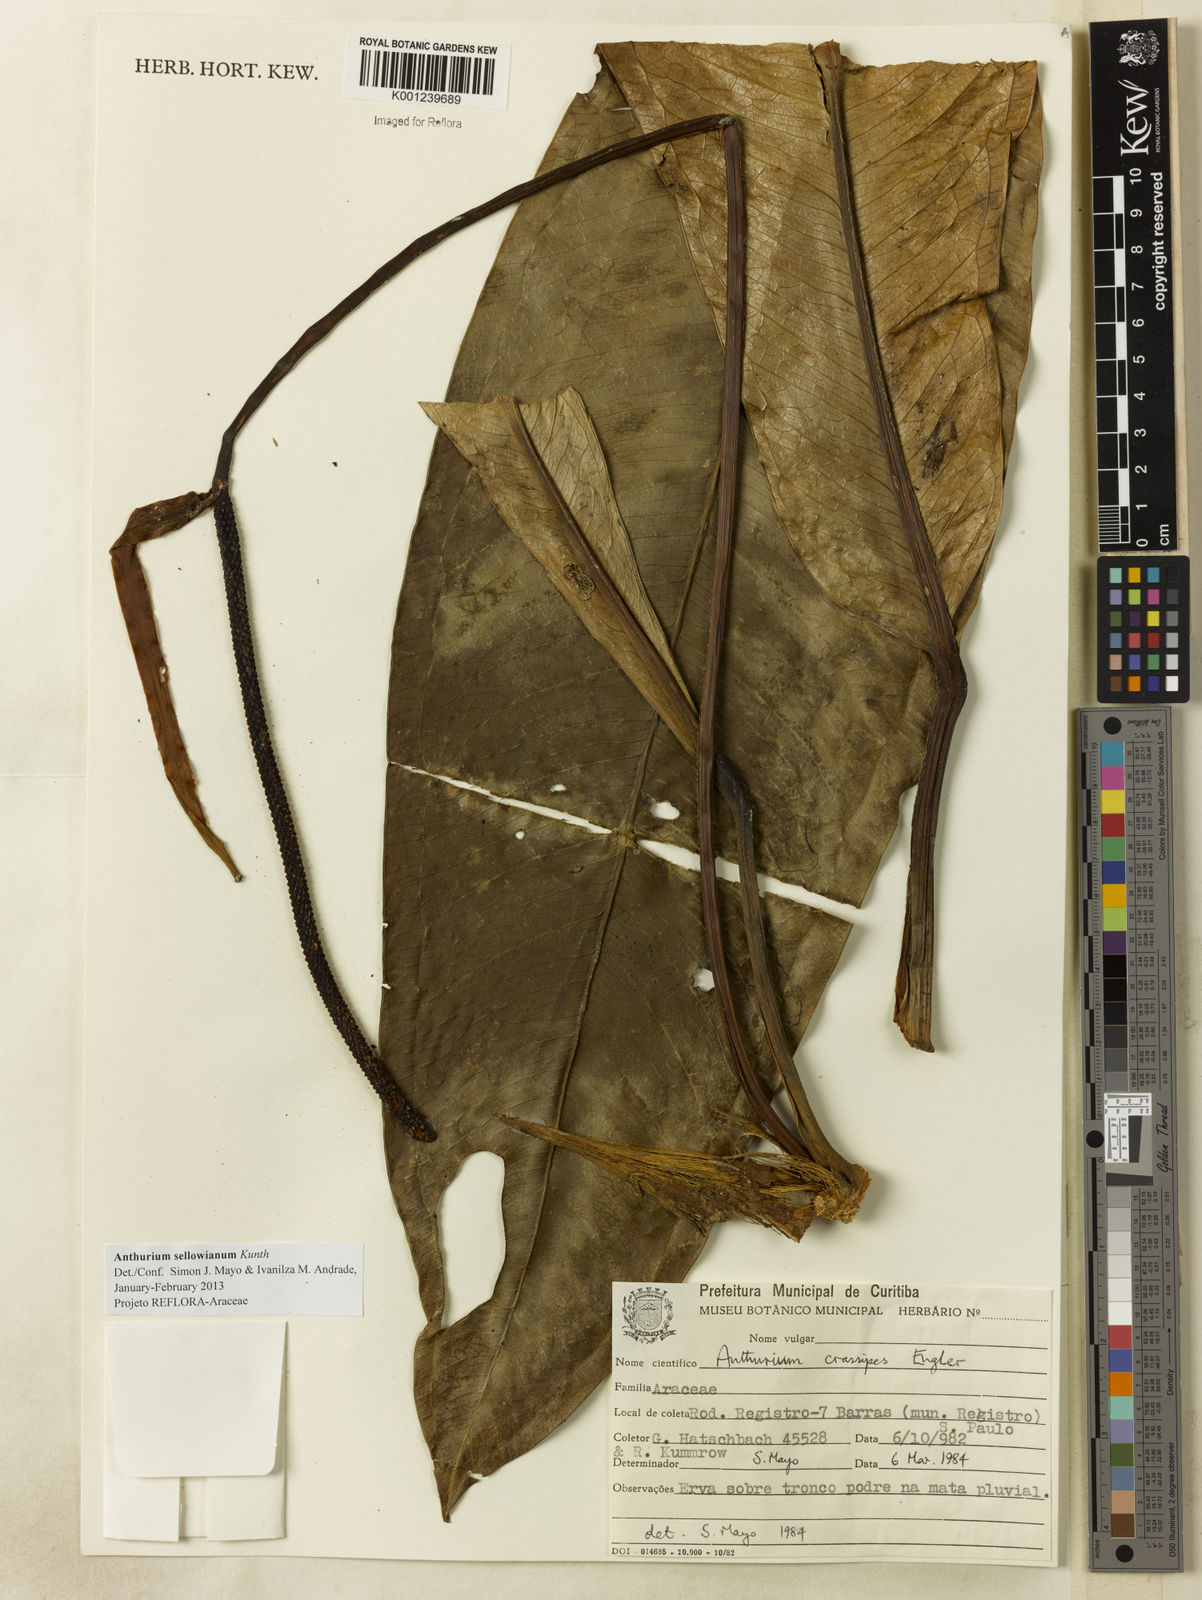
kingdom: Plantae
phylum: Tracheophyta
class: Liliopsida
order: Alismatales
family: Araceae
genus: Anthurium
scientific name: Anthurium sellowianum
